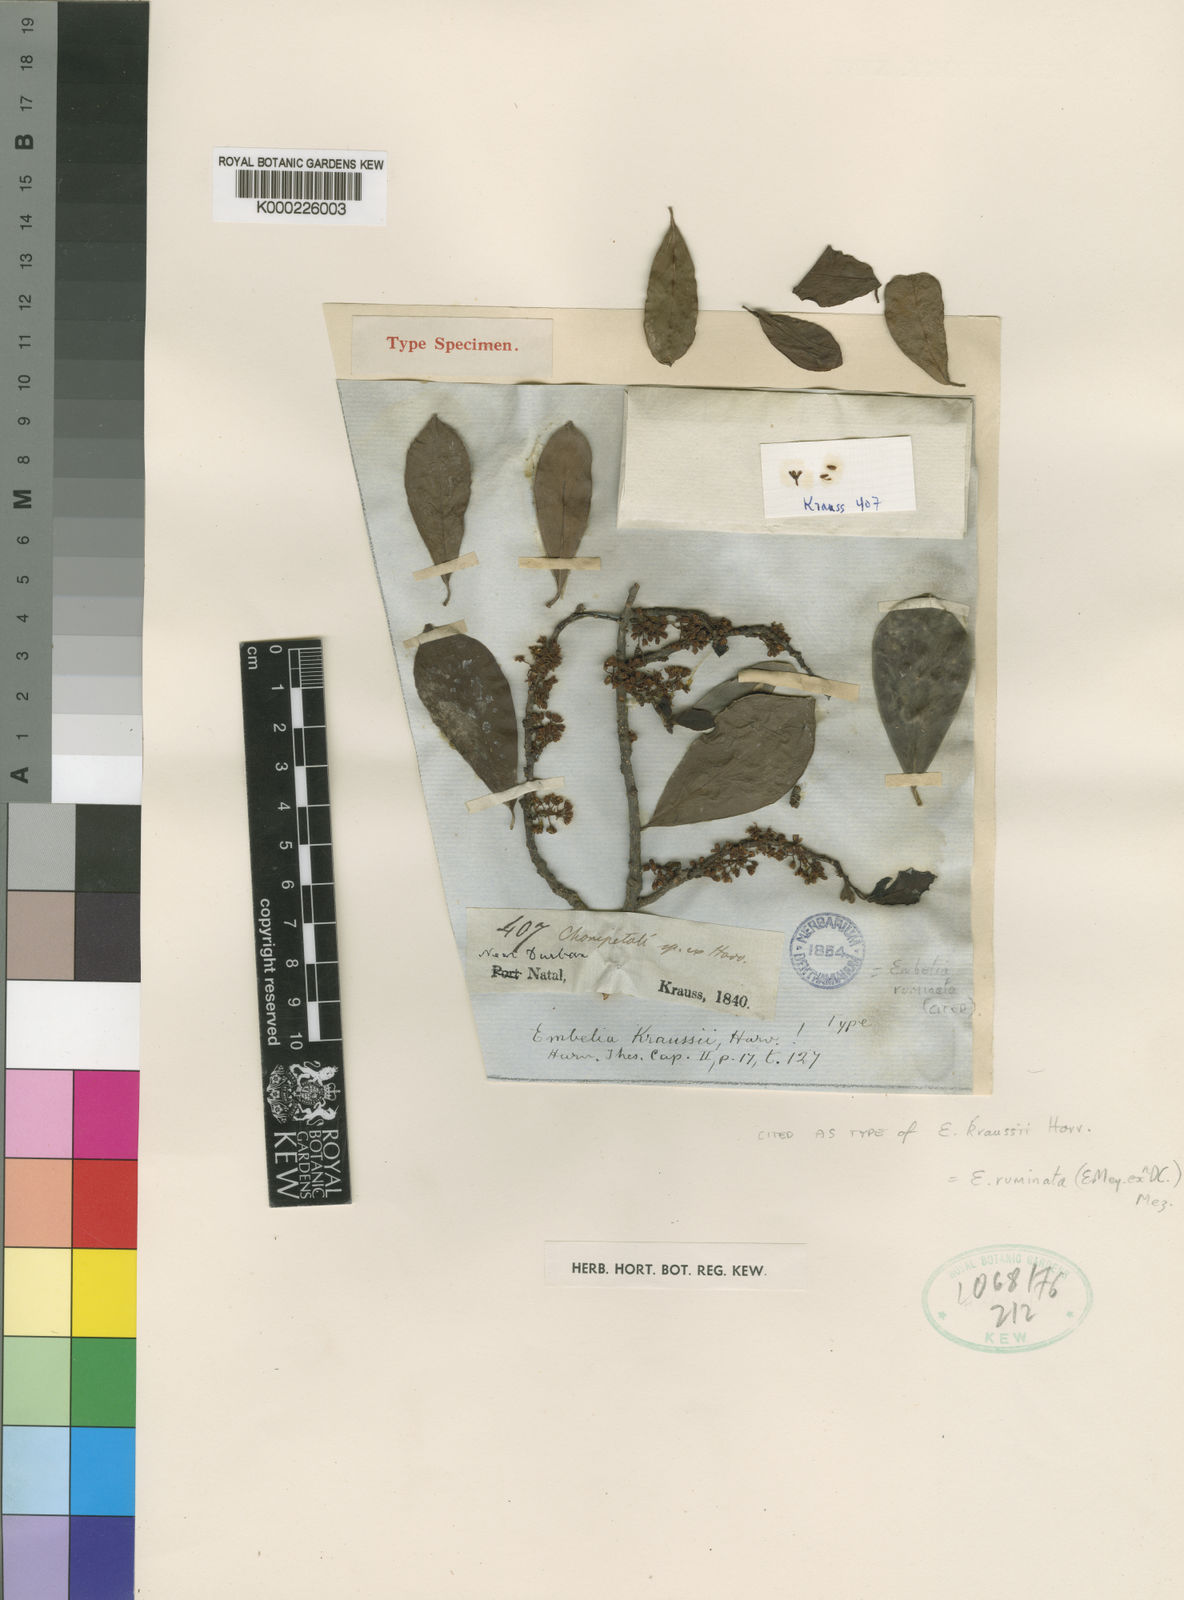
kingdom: Plantae
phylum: Tracheophyta
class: Magnoliopsida
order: Ericales
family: Primulaceae
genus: Embelia
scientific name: Embelia ruminata
